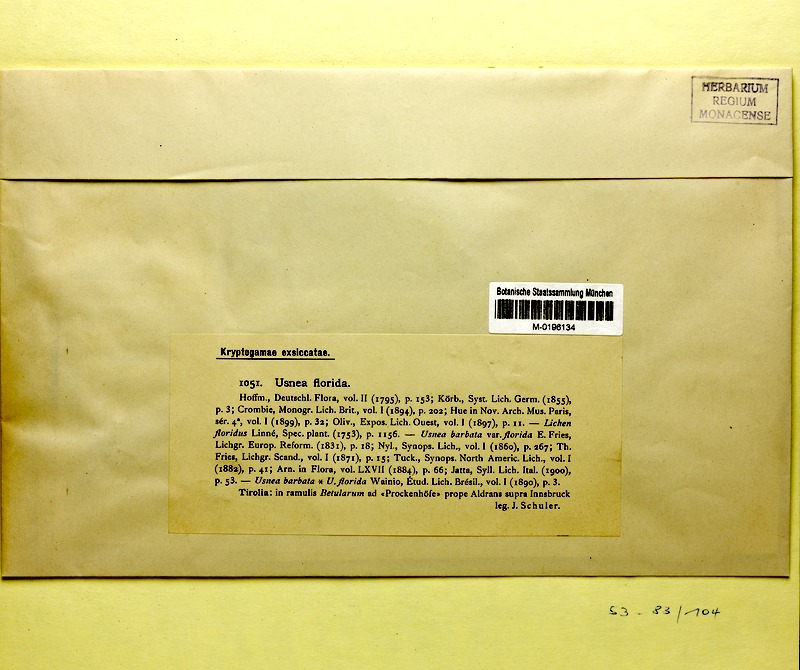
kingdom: Fungi
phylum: Ascomycota
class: Lecanoromycetes
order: Lecanorales
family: Parmeliaceae
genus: Usnea
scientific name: Usnea florida
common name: Witches' whiskers lichen
